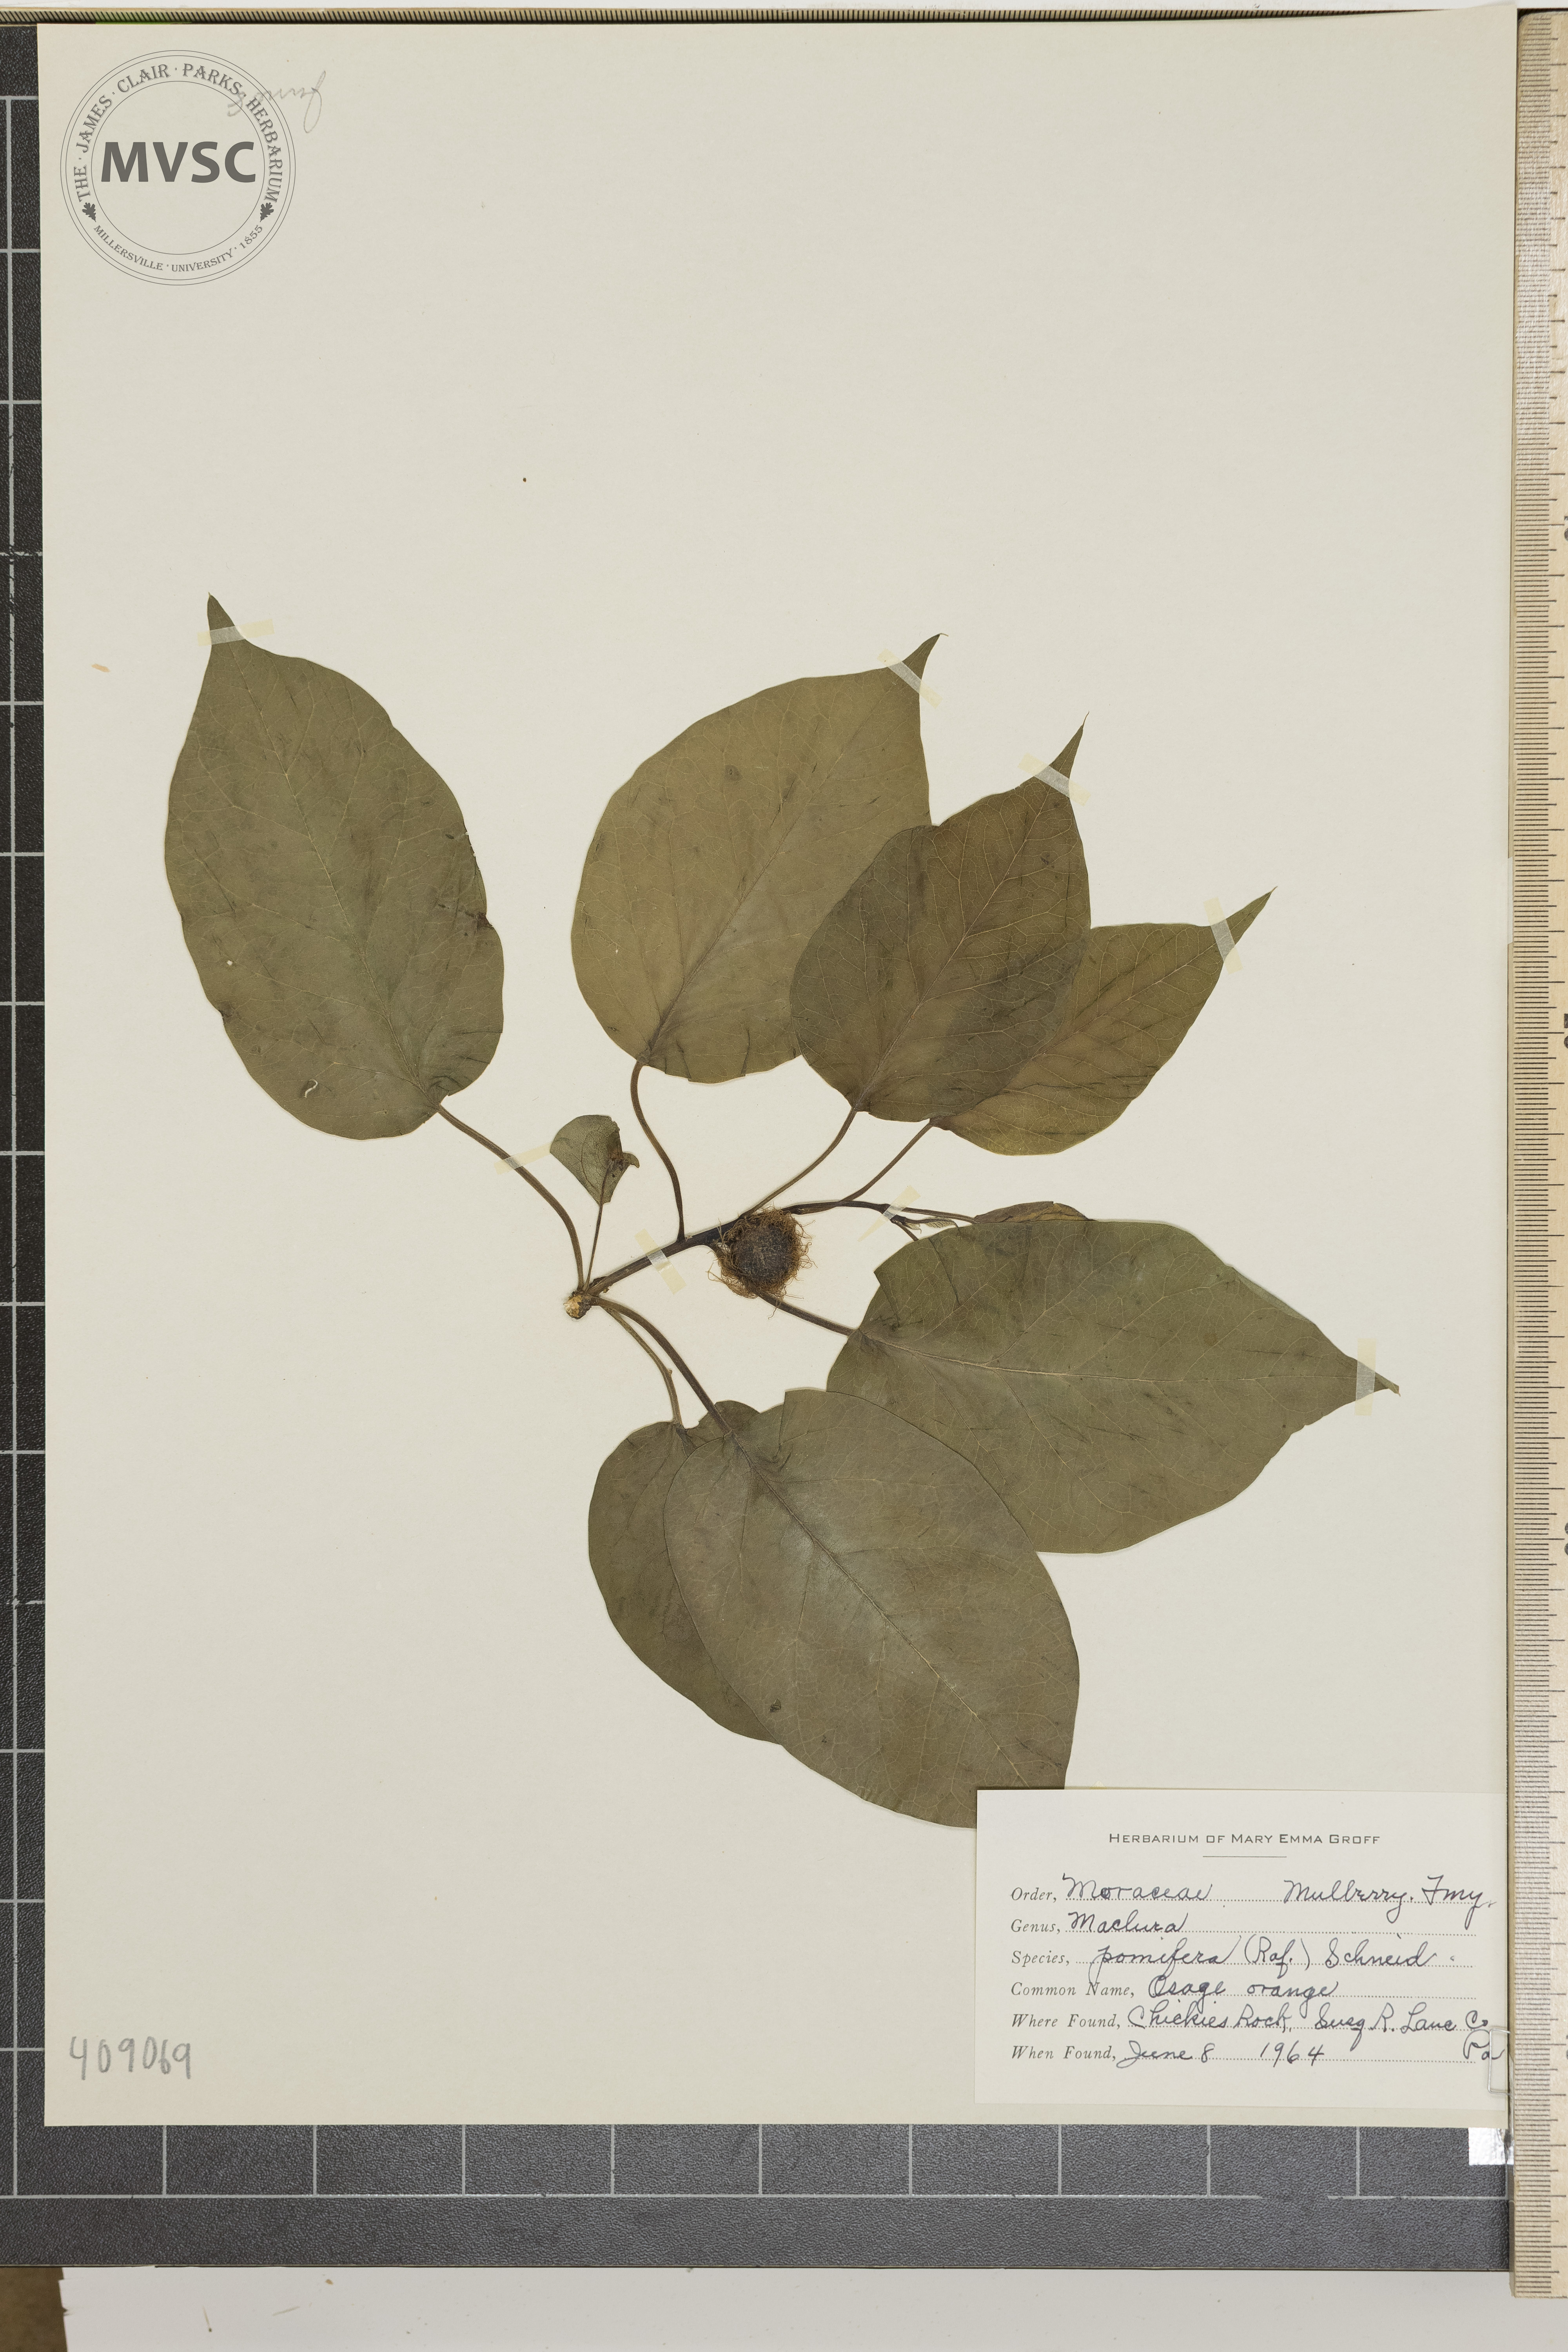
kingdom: Plantae
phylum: Tracheophyta
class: Magnoliopsida
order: Rosales
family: Moraceae
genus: Maclura
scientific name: Maclura pomifera
